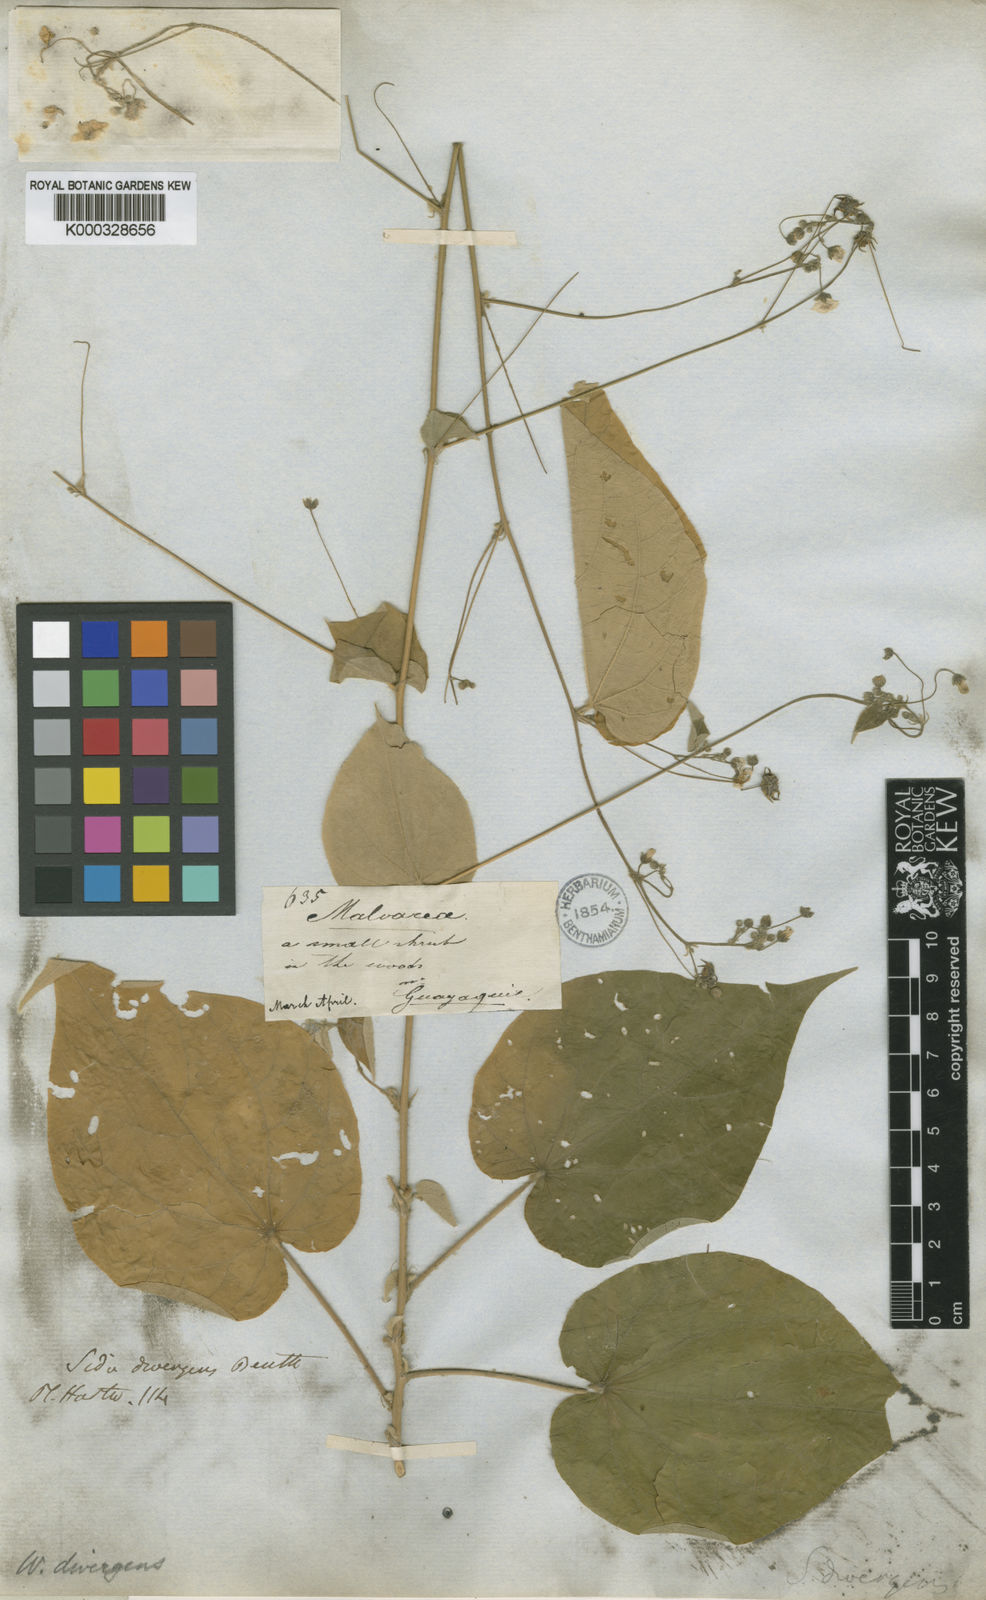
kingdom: Plantae
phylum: Tracheophyta
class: Magnoliopsida
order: Malvales
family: Malvaceae
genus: Wissadula
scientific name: Wissadula
